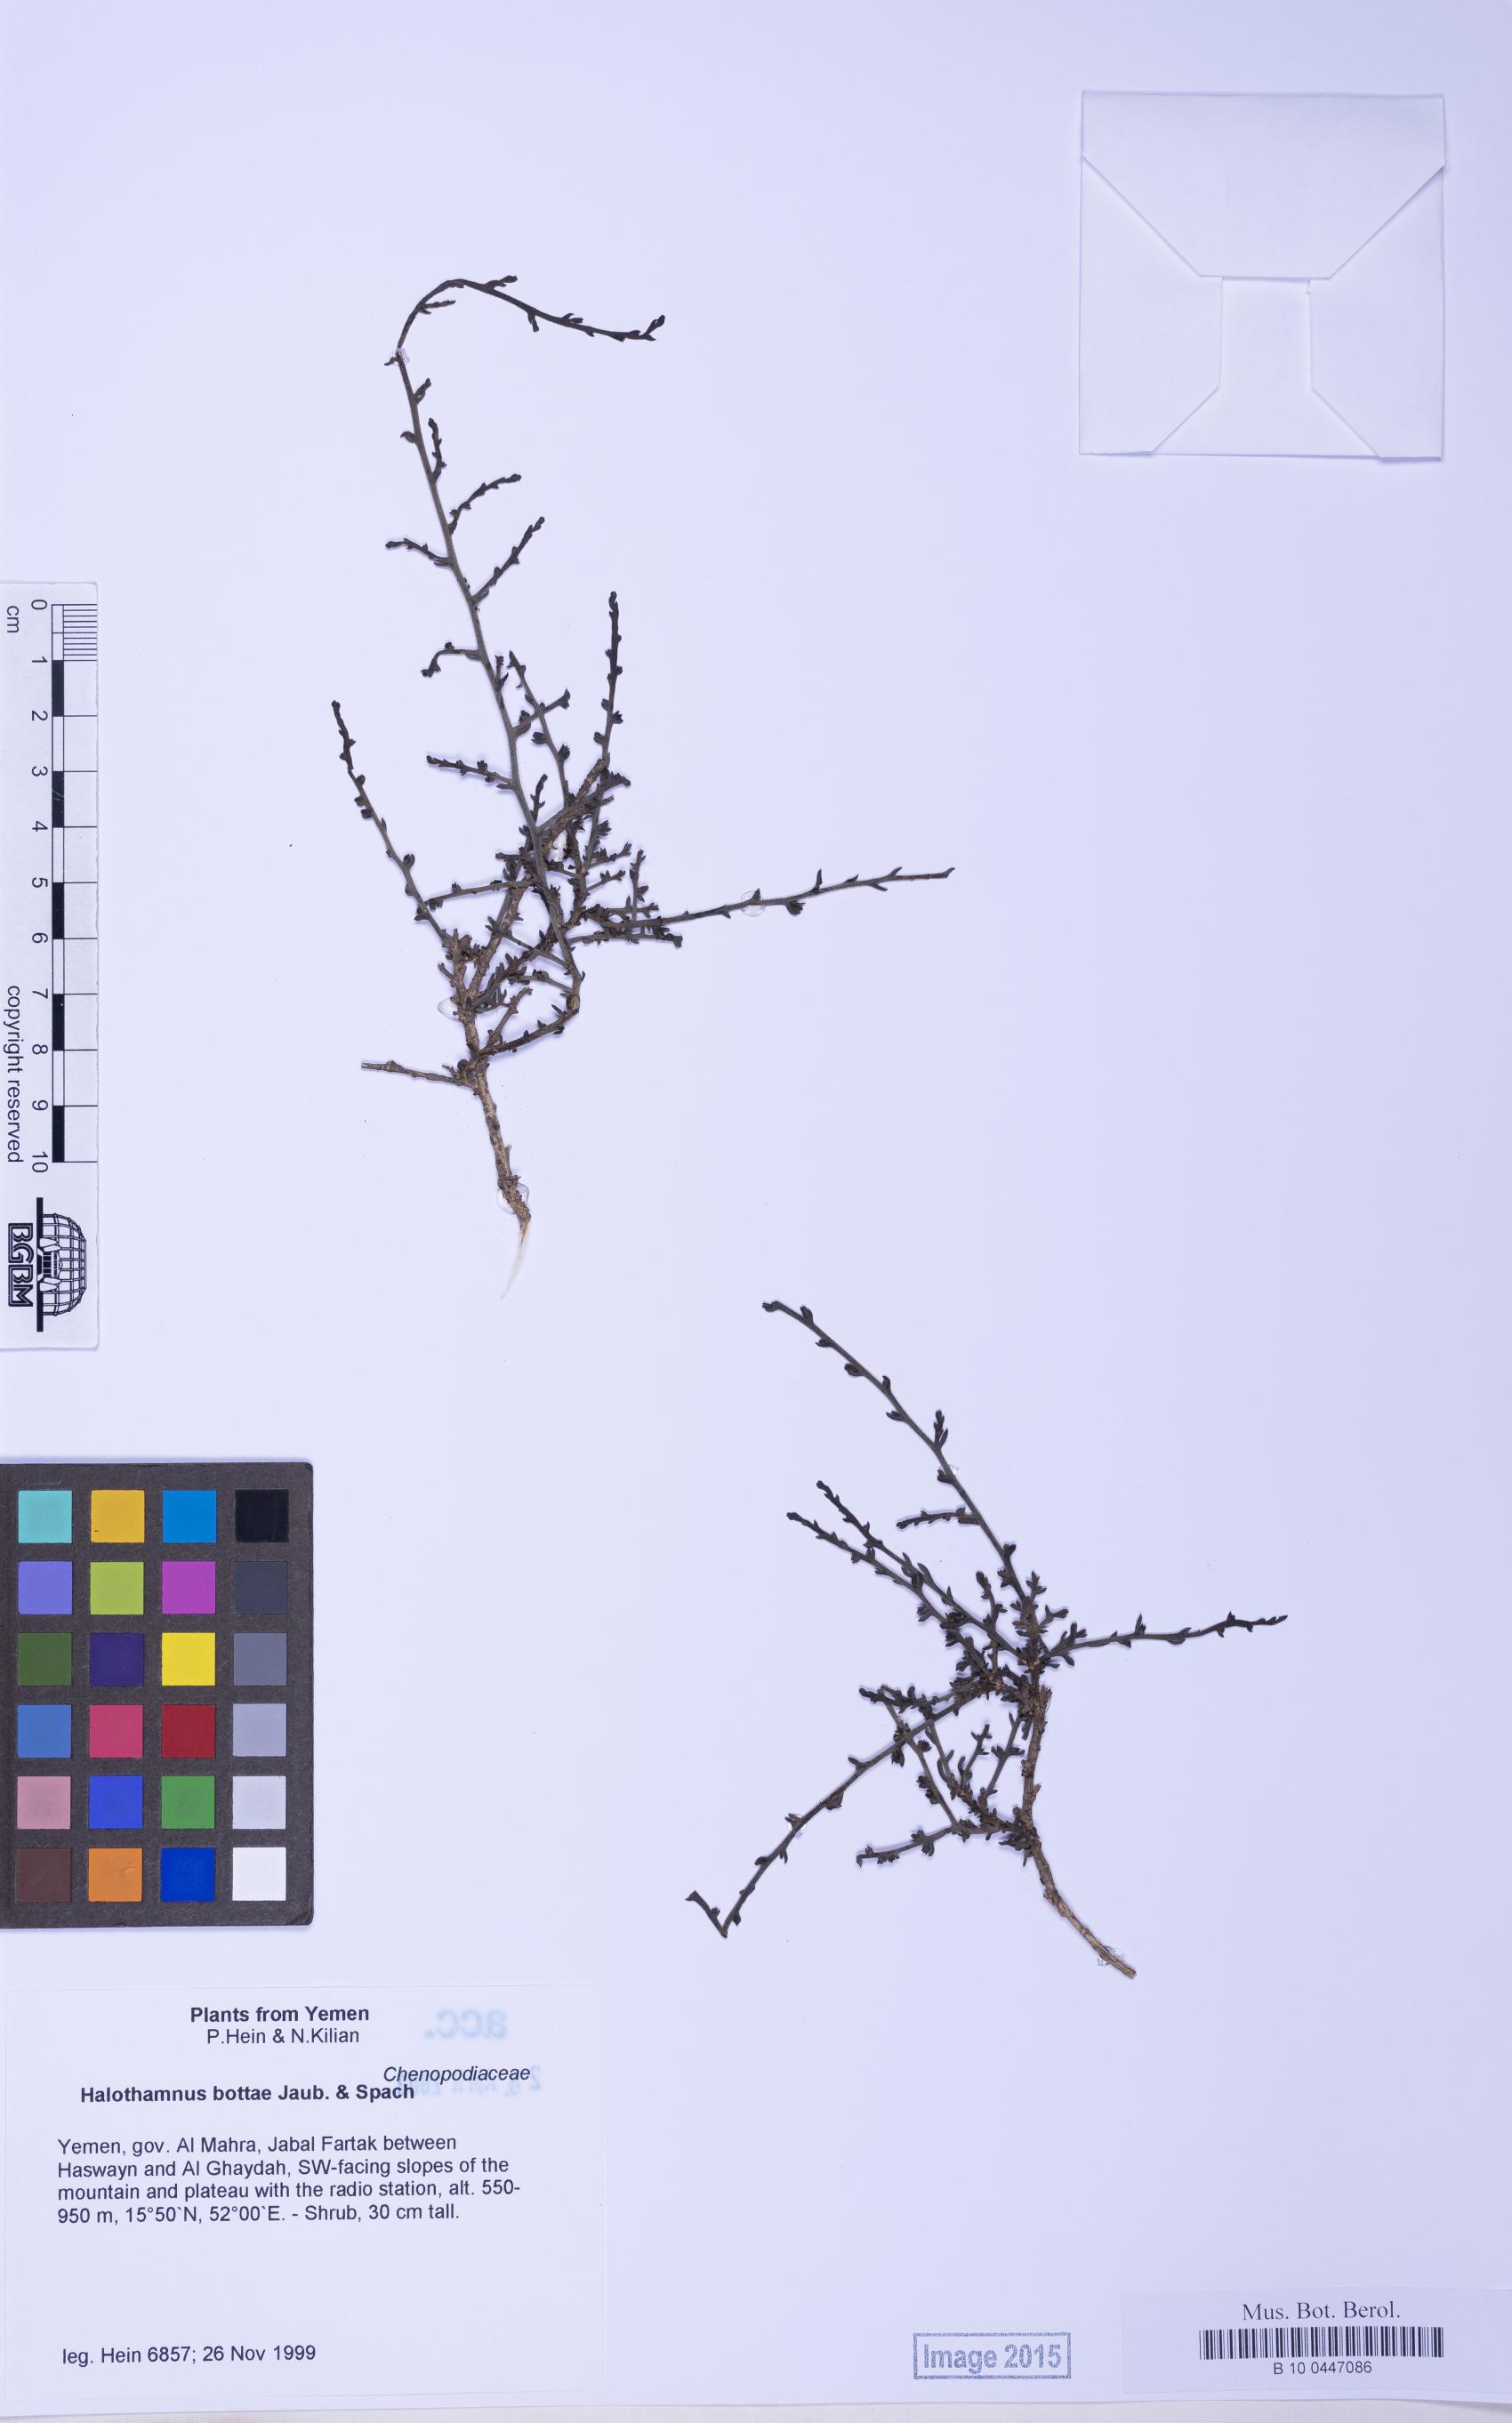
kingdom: Plantae
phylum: Tracheophyta
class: Magnoliopsida
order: Caryophyllales
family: Amaranthaceae
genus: Halothamnus
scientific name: Halothamnus bottae
